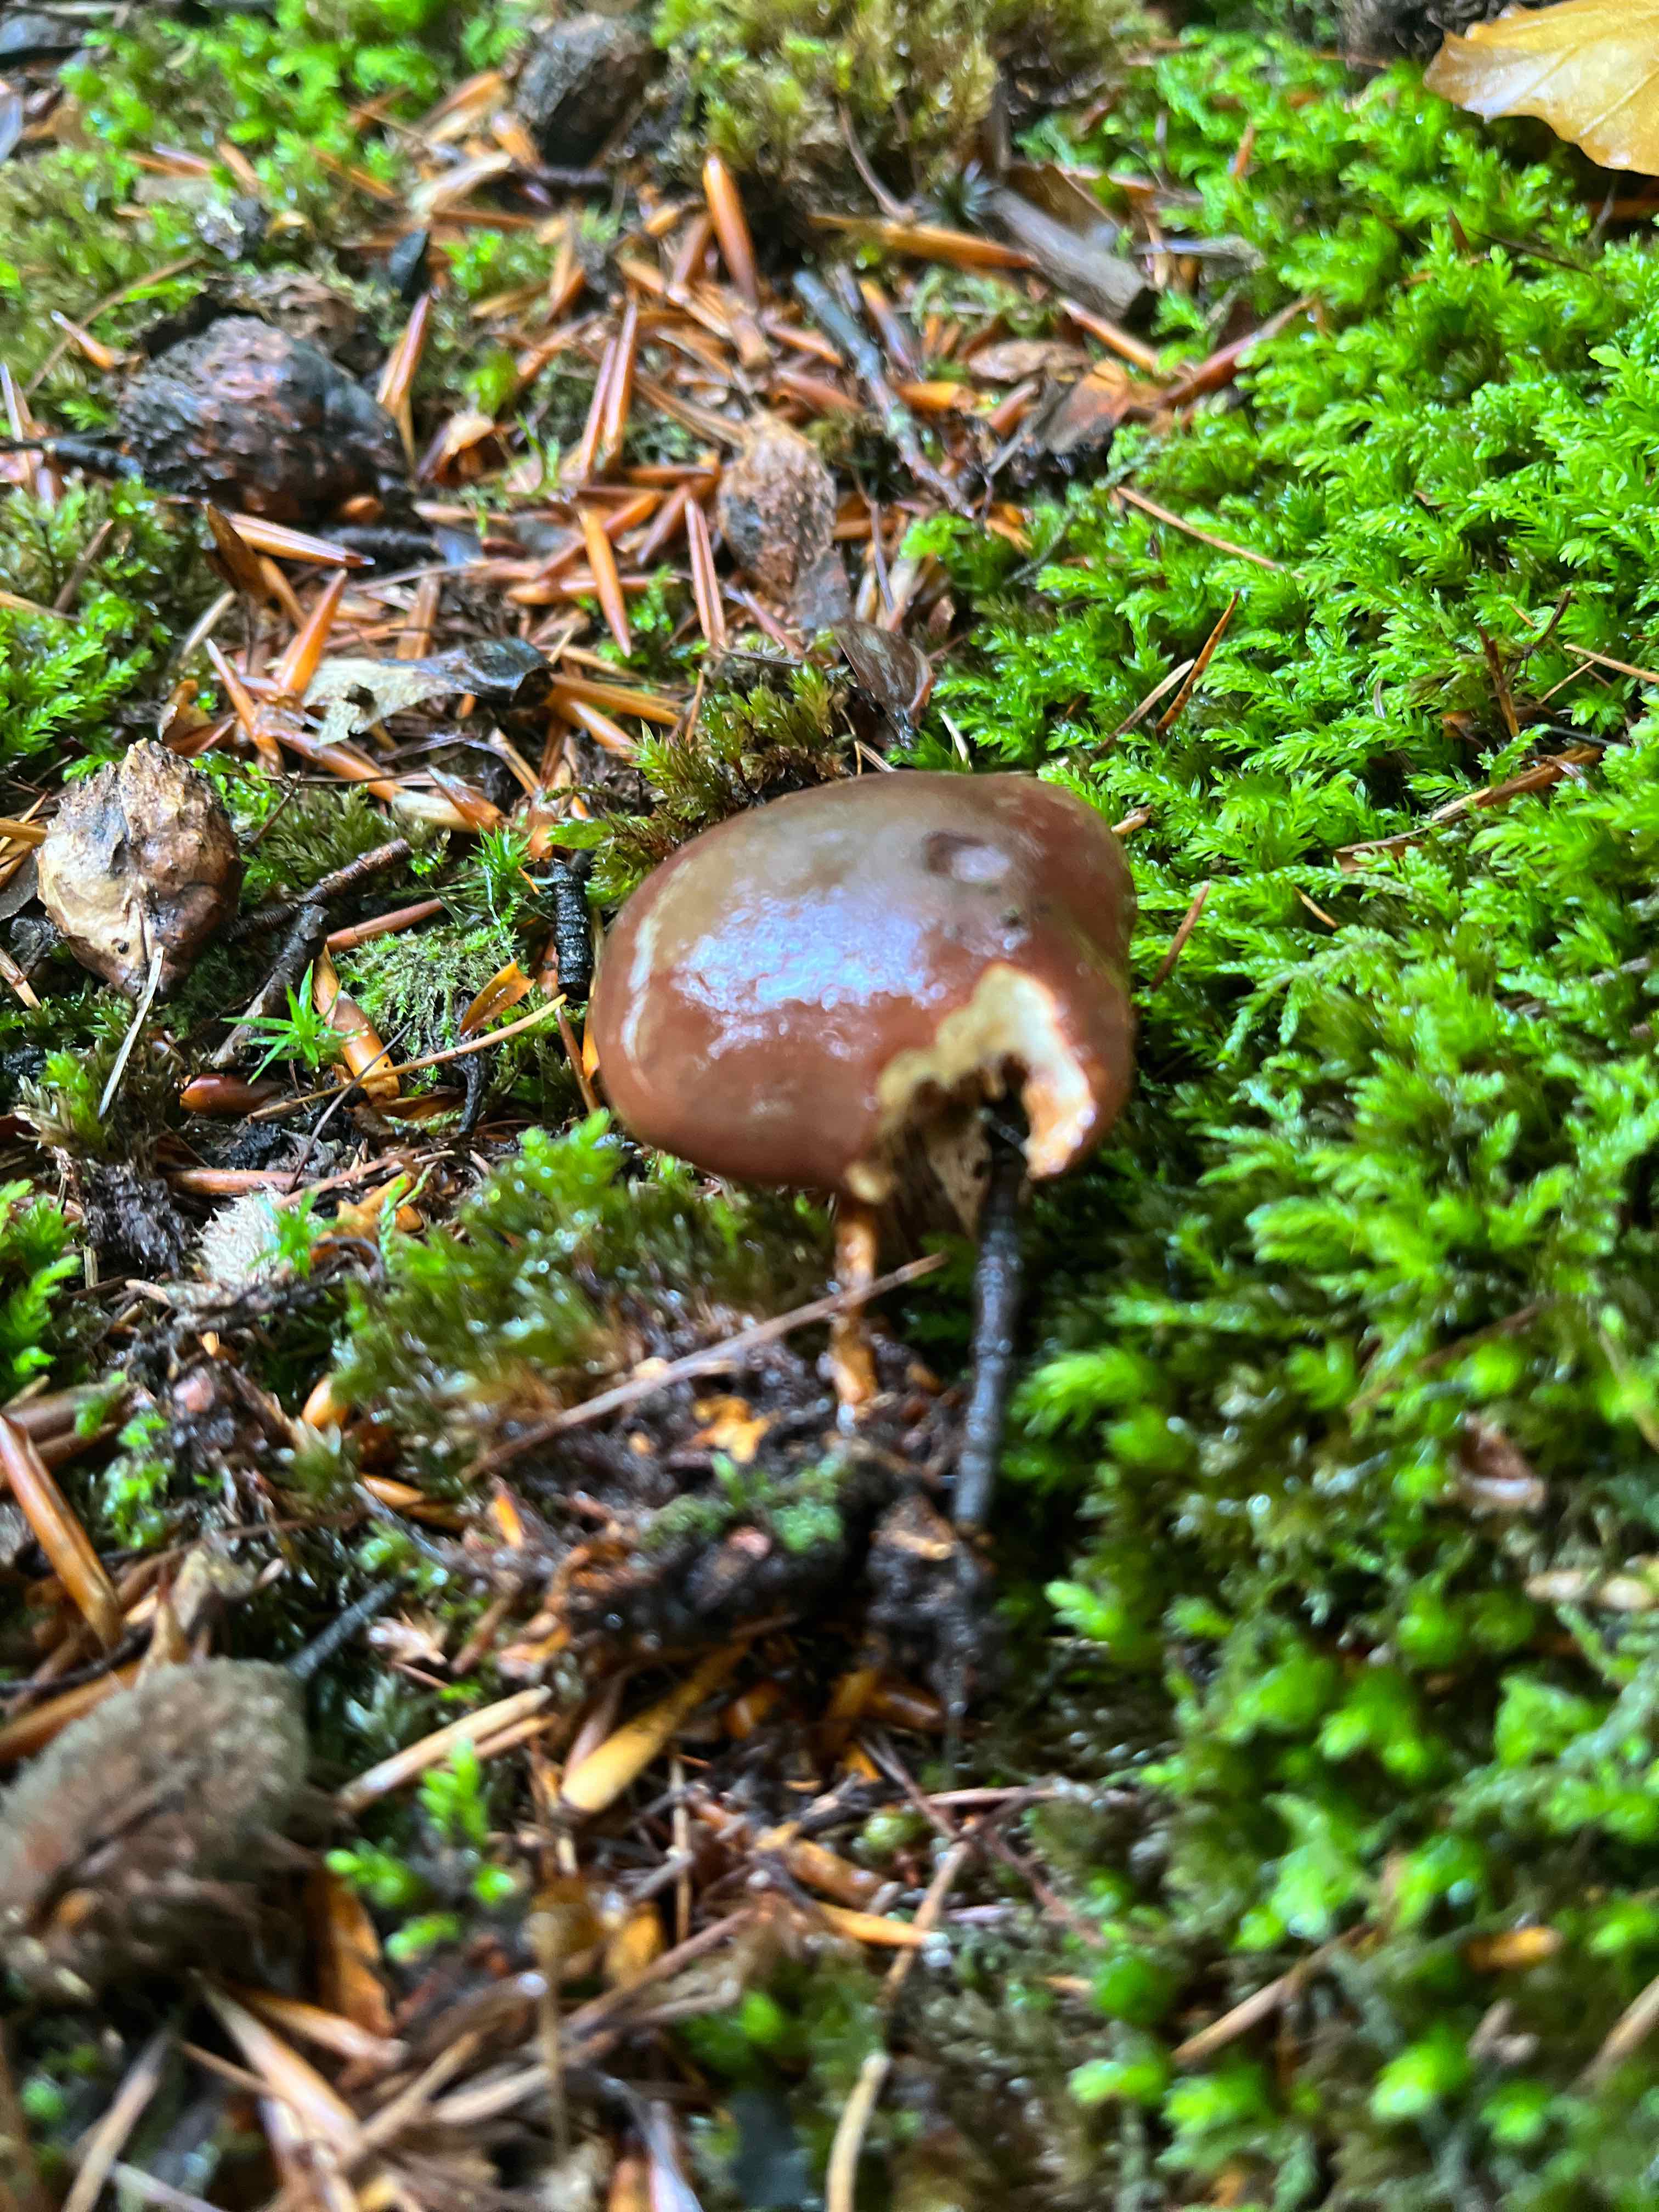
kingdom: Fungi
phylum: Basidiomycota
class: Agaricomycetes
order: Agaricales
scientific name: Agaricales
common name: champignonordenen
